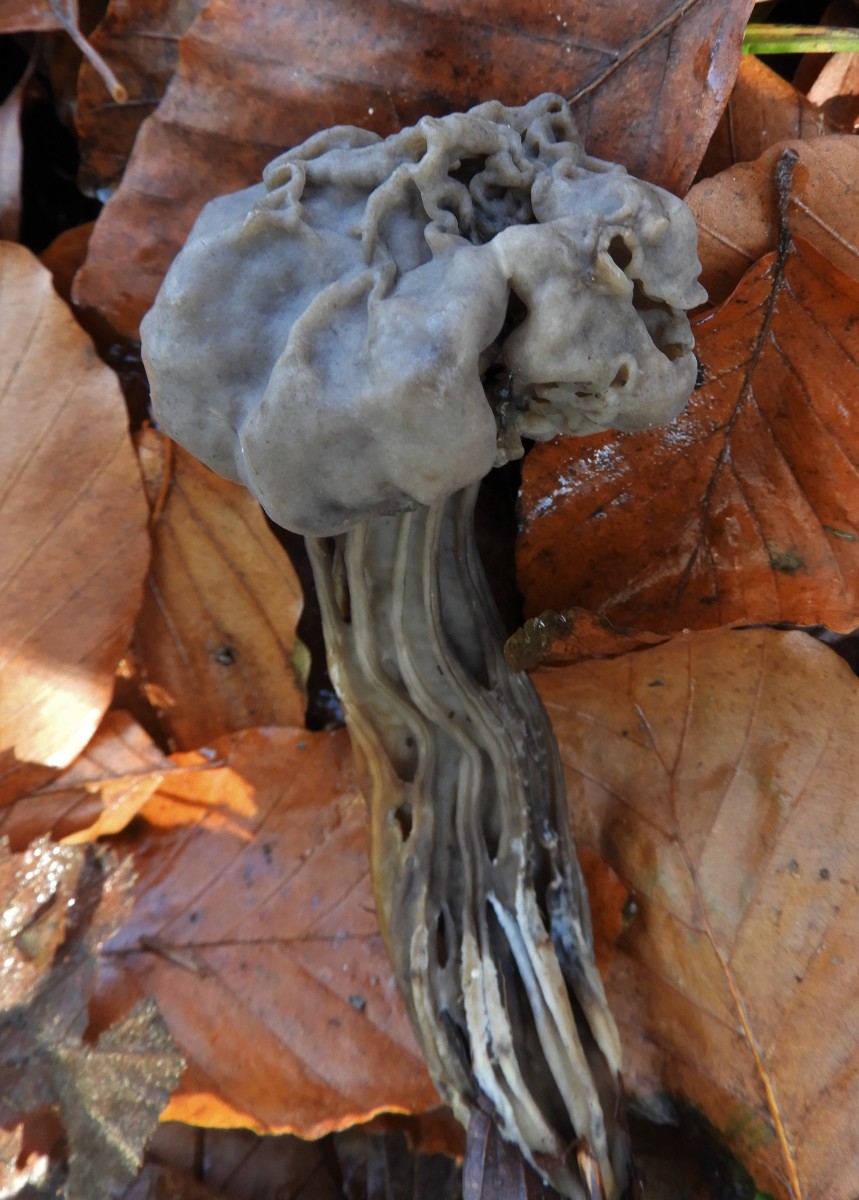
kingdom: Fungi
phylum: Ascomycota
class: Pezizomycetes
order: Pezizales
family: Helvellaceae
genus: Helvella
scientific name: Helvella lacunosa
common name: grubet foldhat
